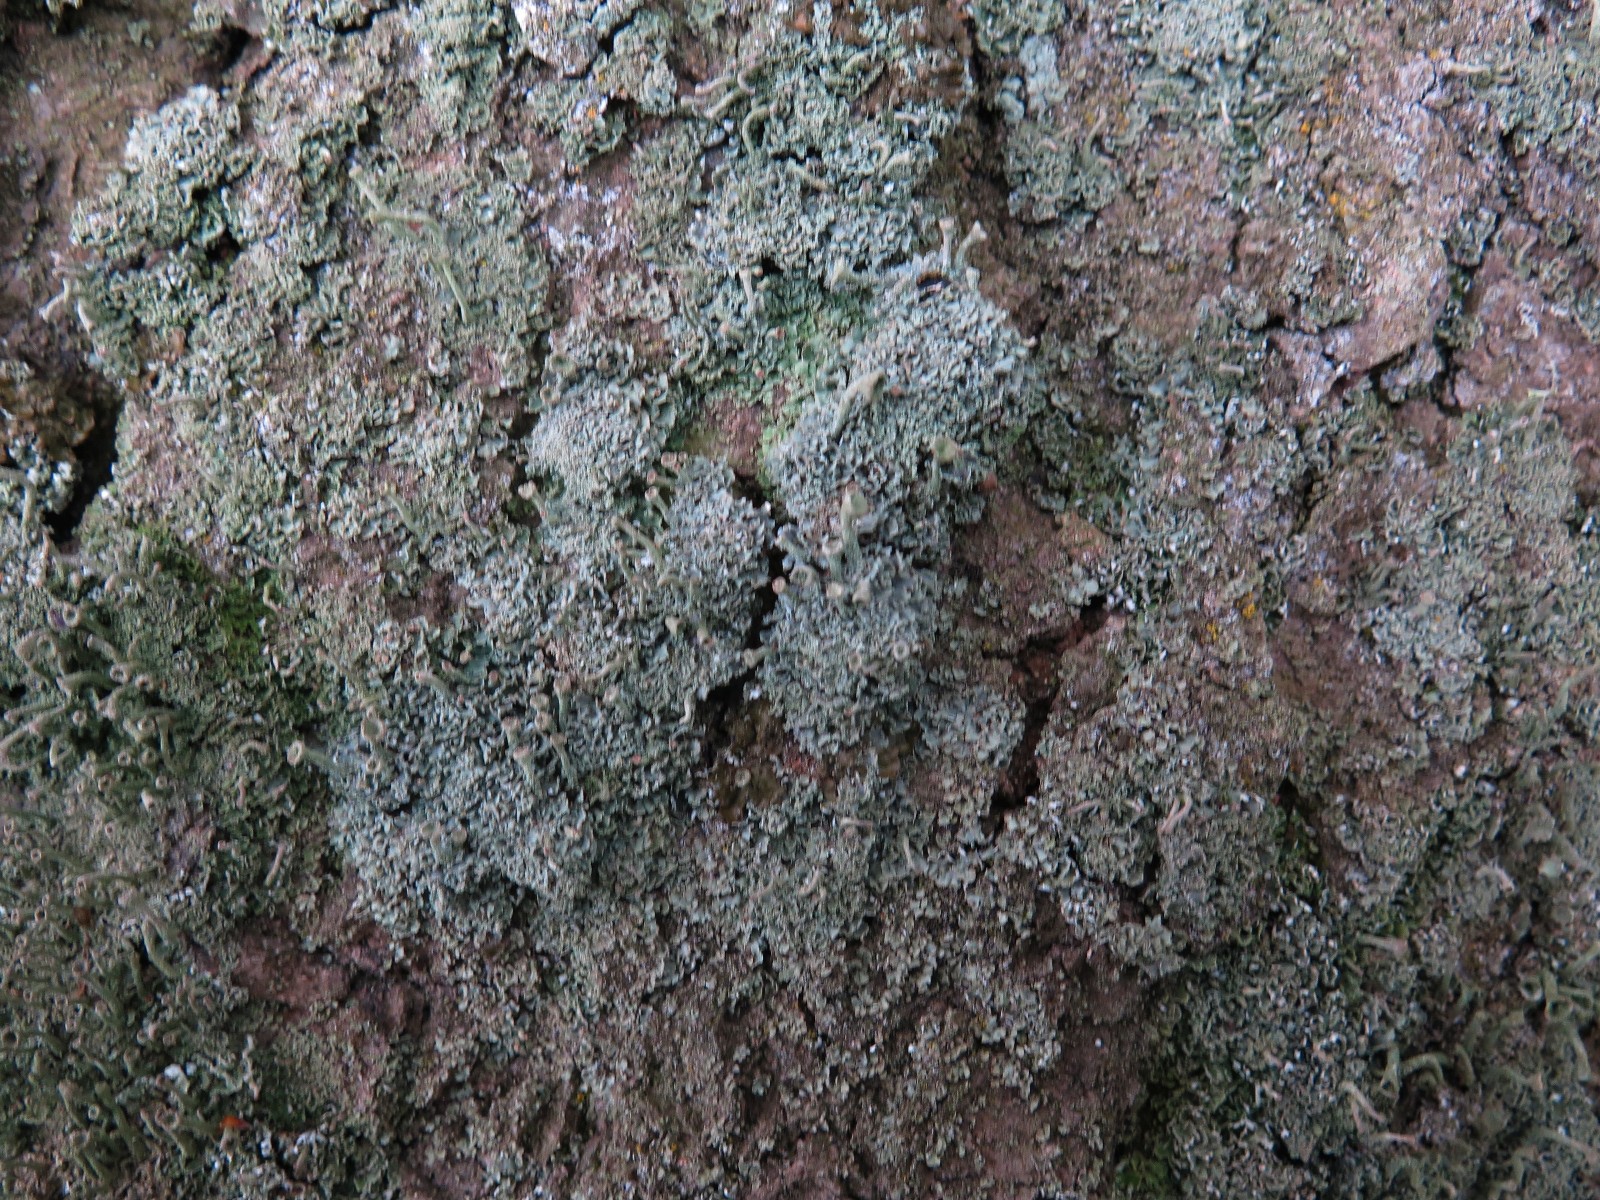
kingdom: Fungi
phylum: Ascomycota
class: Lecanoromycetes
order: Lecanorales
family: Cladoniaceae
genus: Cladonia
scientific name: Cladonia
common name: brungrøn bægerlav
